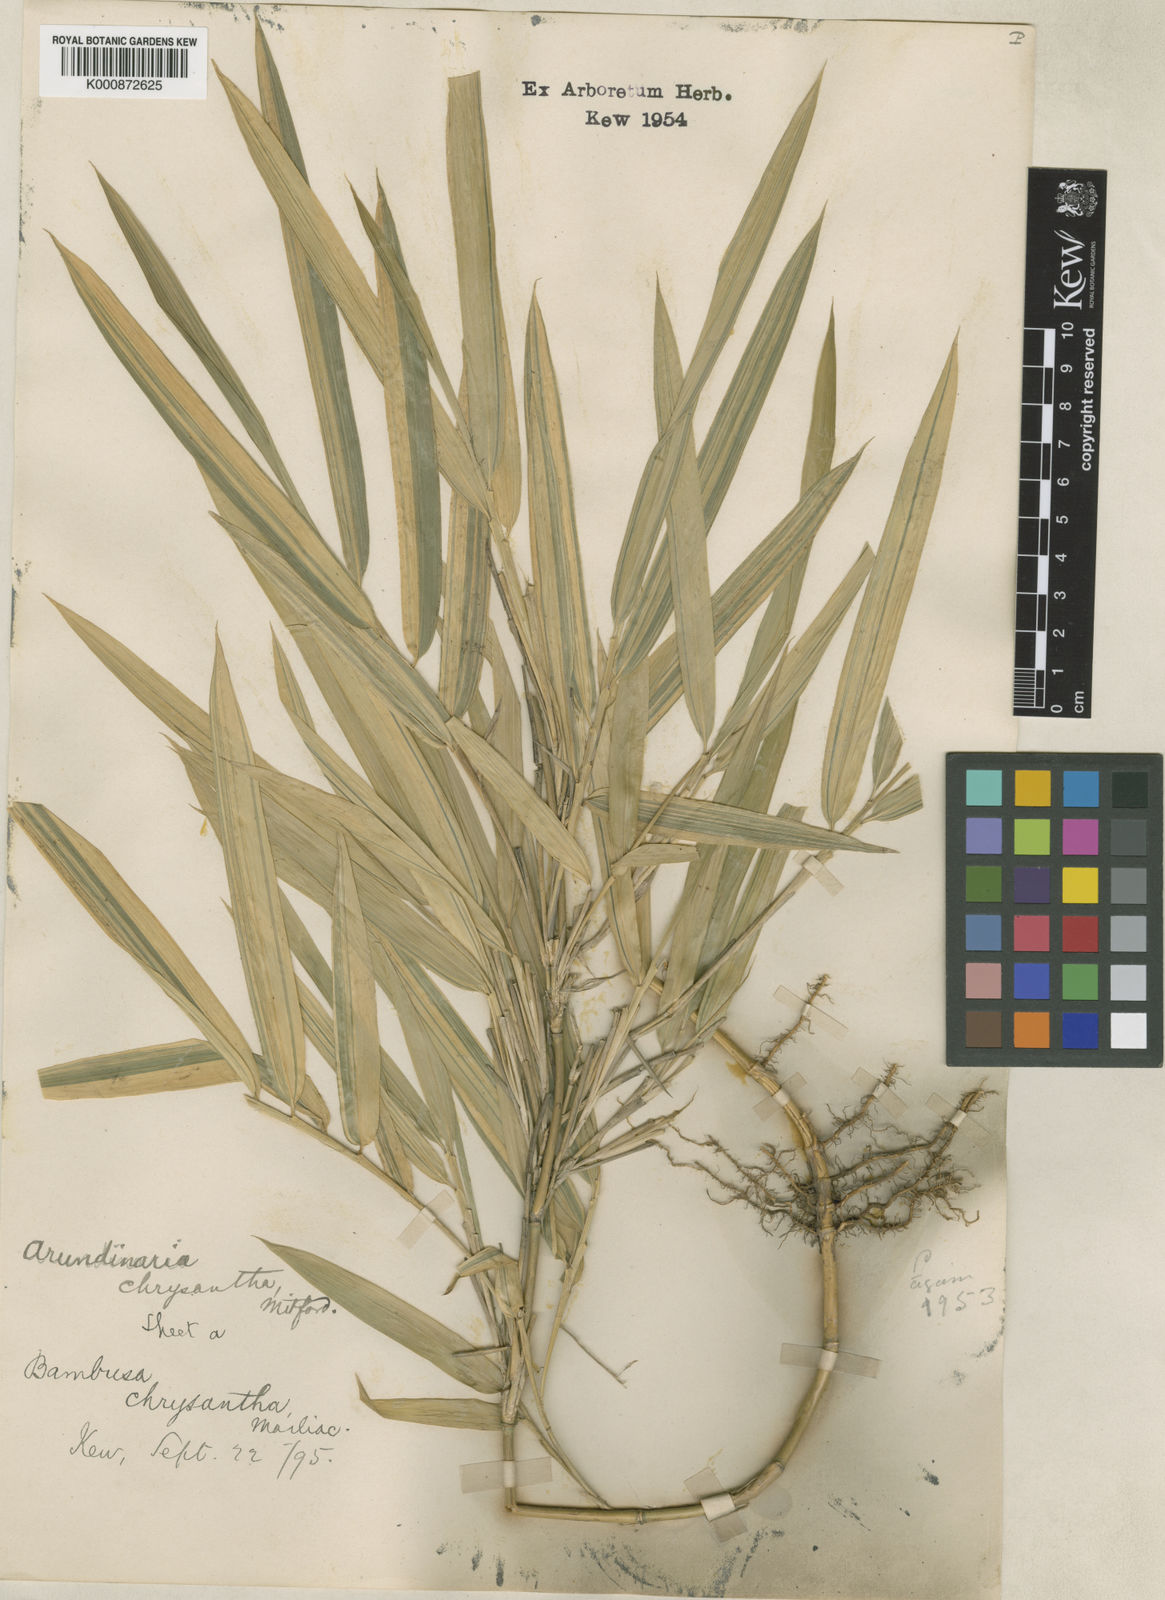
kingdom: Plantae
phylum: Tracheophyta
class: Liliopsida
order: Poales
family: Poaceae
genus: Pleioblastus
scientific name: Pleioblastus argenteostriatus
